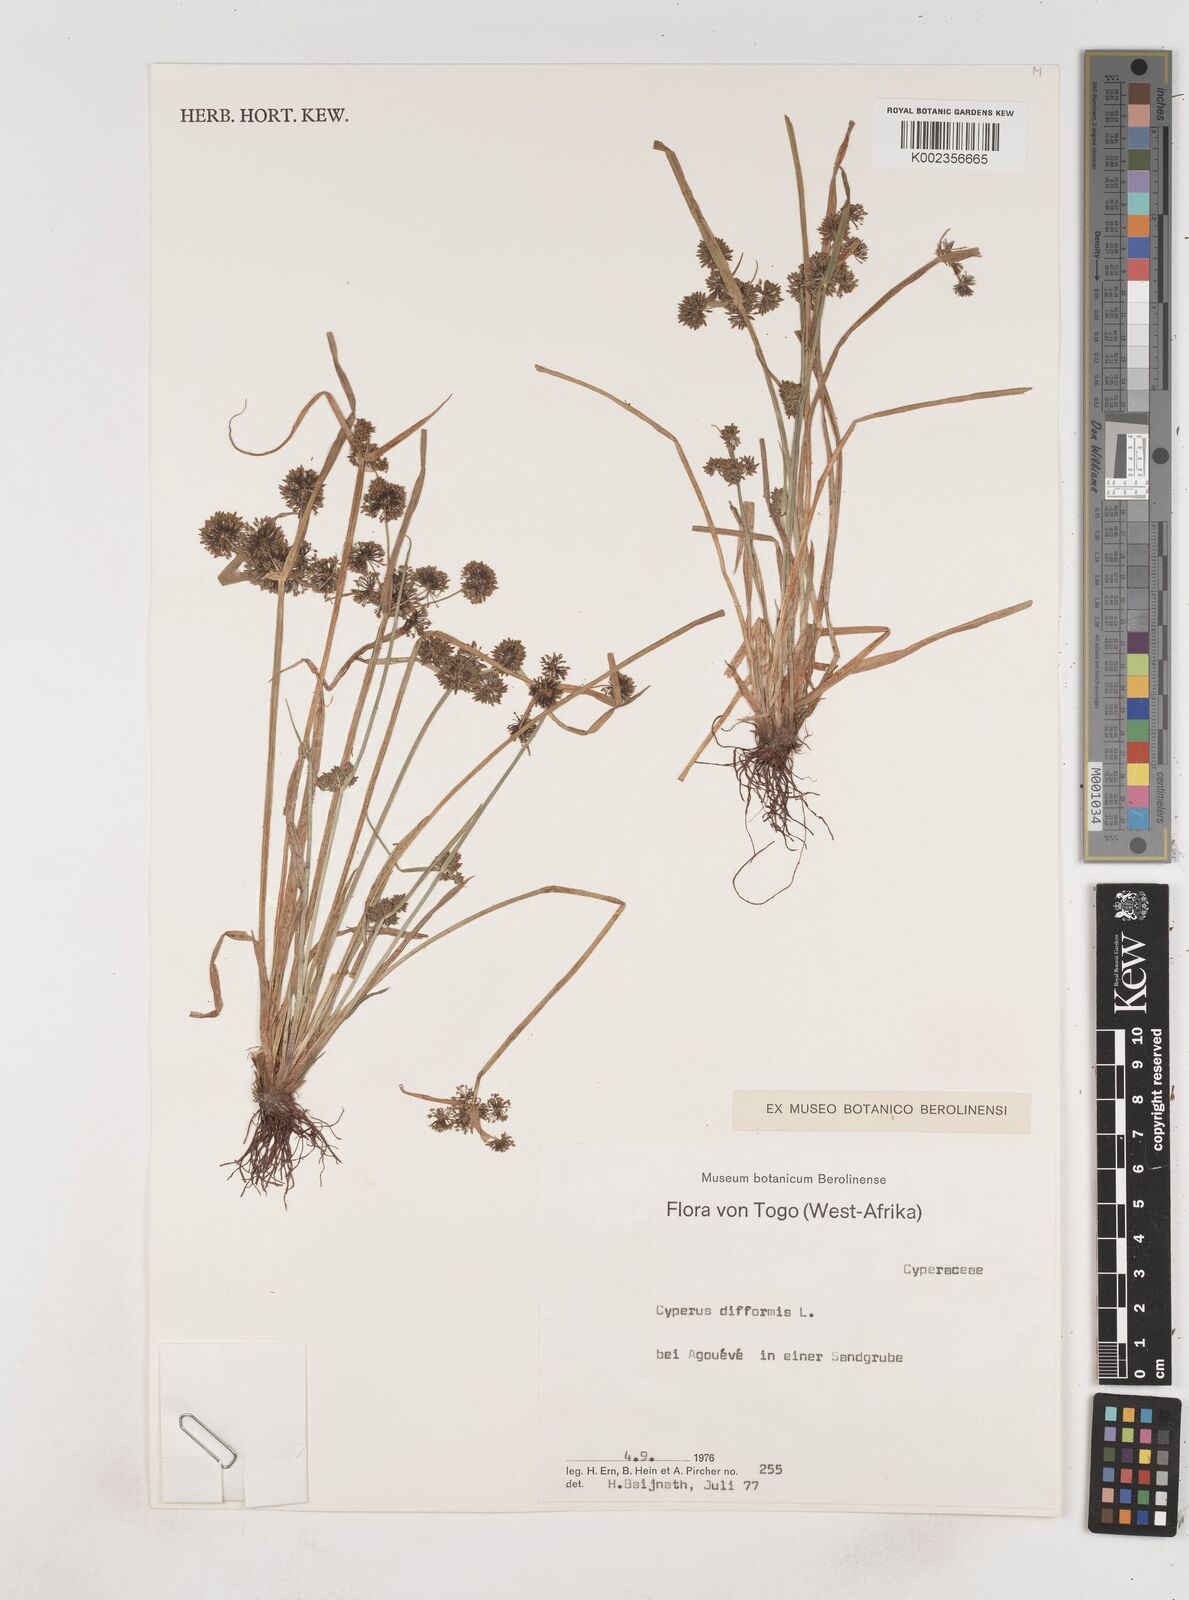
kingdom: Plantae
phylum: Tracheophyta
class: Liliopsida
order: Poales
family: Cyperaceae
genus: Cyperus
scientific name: Cyperus difformis
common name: Variable flatsedge
